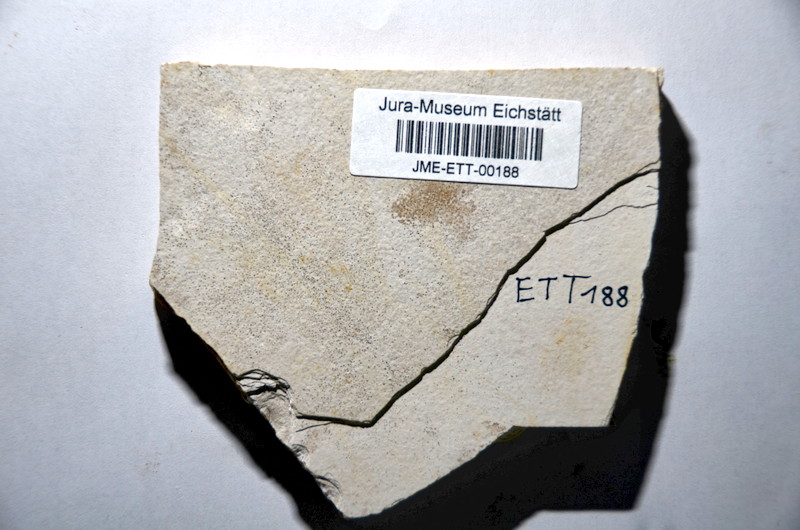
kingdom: Animalia
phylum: Chordata
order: Salmoniformes
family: Orthogonikleithridae
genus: Orthogonikleithrus
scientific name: Orthogonikleithrus hoelli
